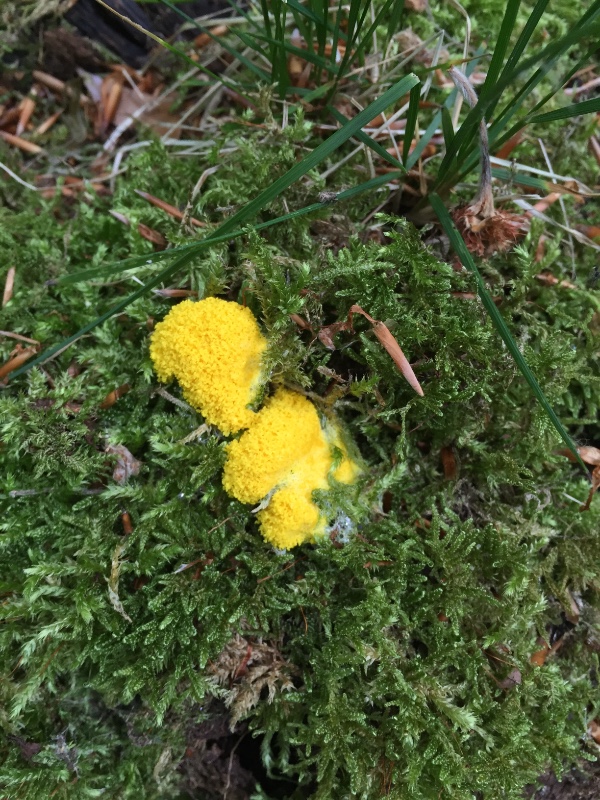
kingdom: Protozoa
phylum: Mycetozoa
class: Myxomycetes
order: Physarales
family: Physaraceae
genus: Fuligo
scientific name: Fuligo septica
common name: gul troldsmør
